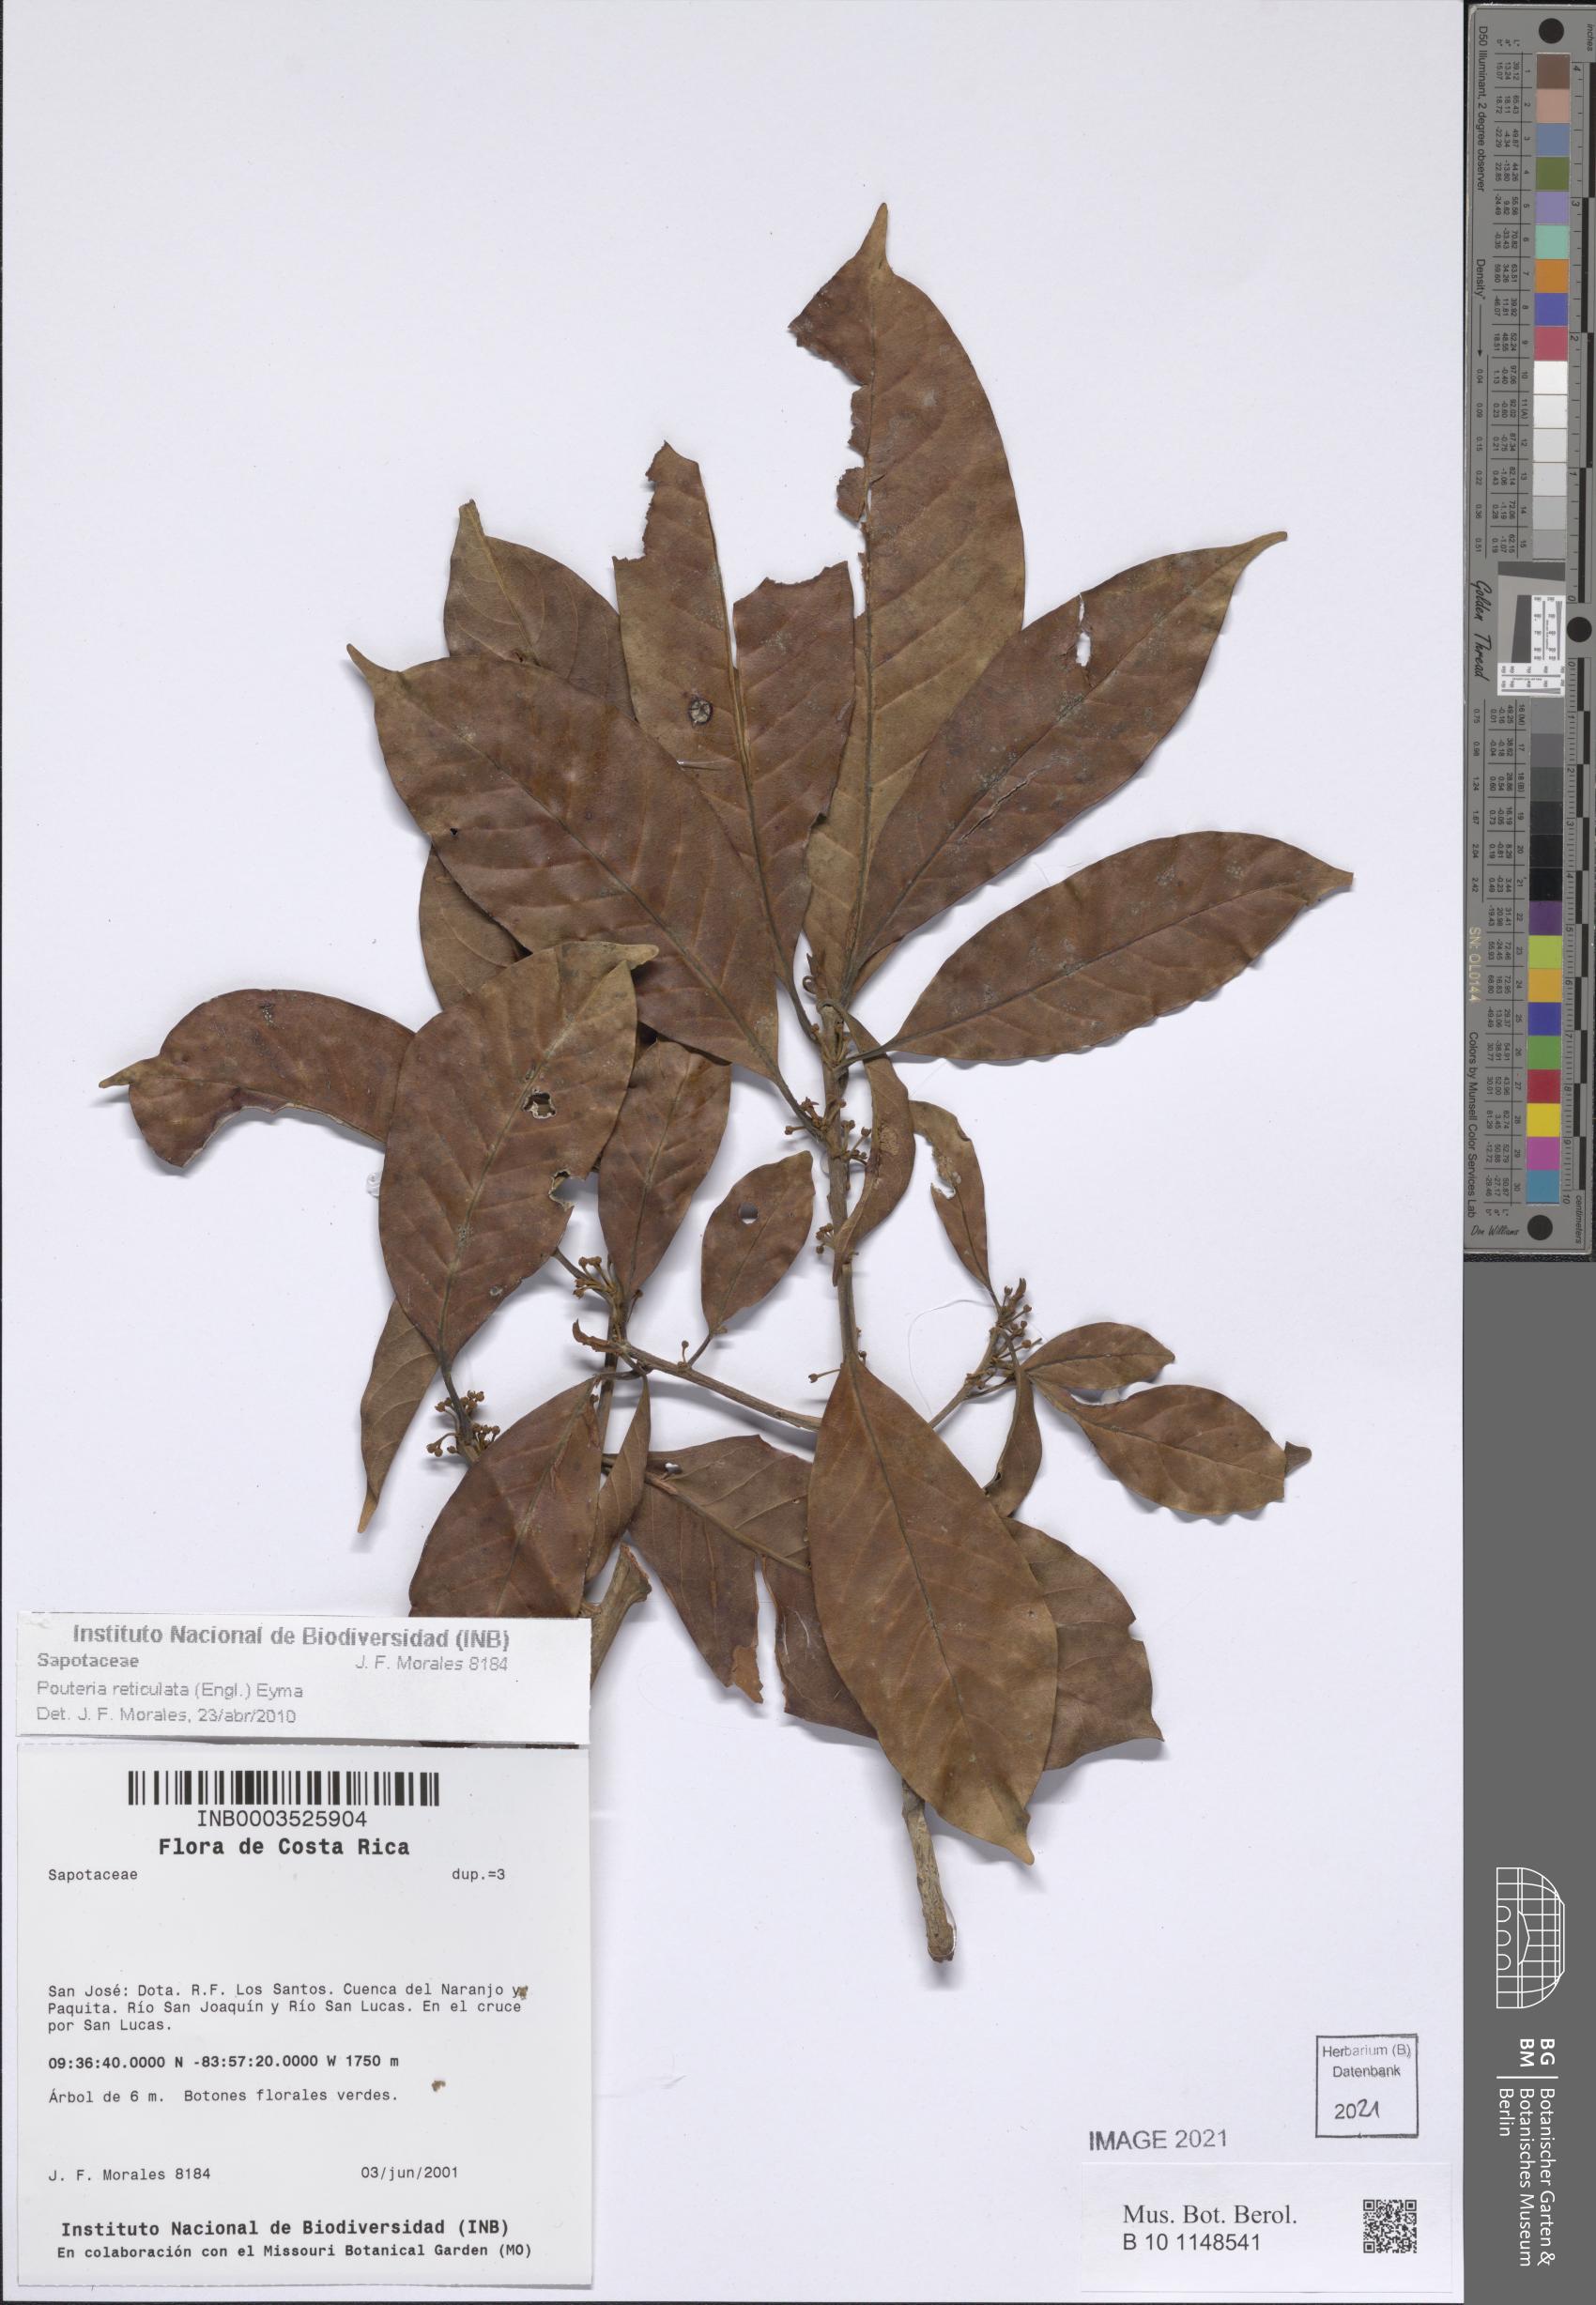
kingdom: Plantae
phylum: Tracheophyta
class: Magnoliopsida
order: Ericales
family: Sapotaceae
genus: Pouteria
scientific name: Pouteria reticulata
